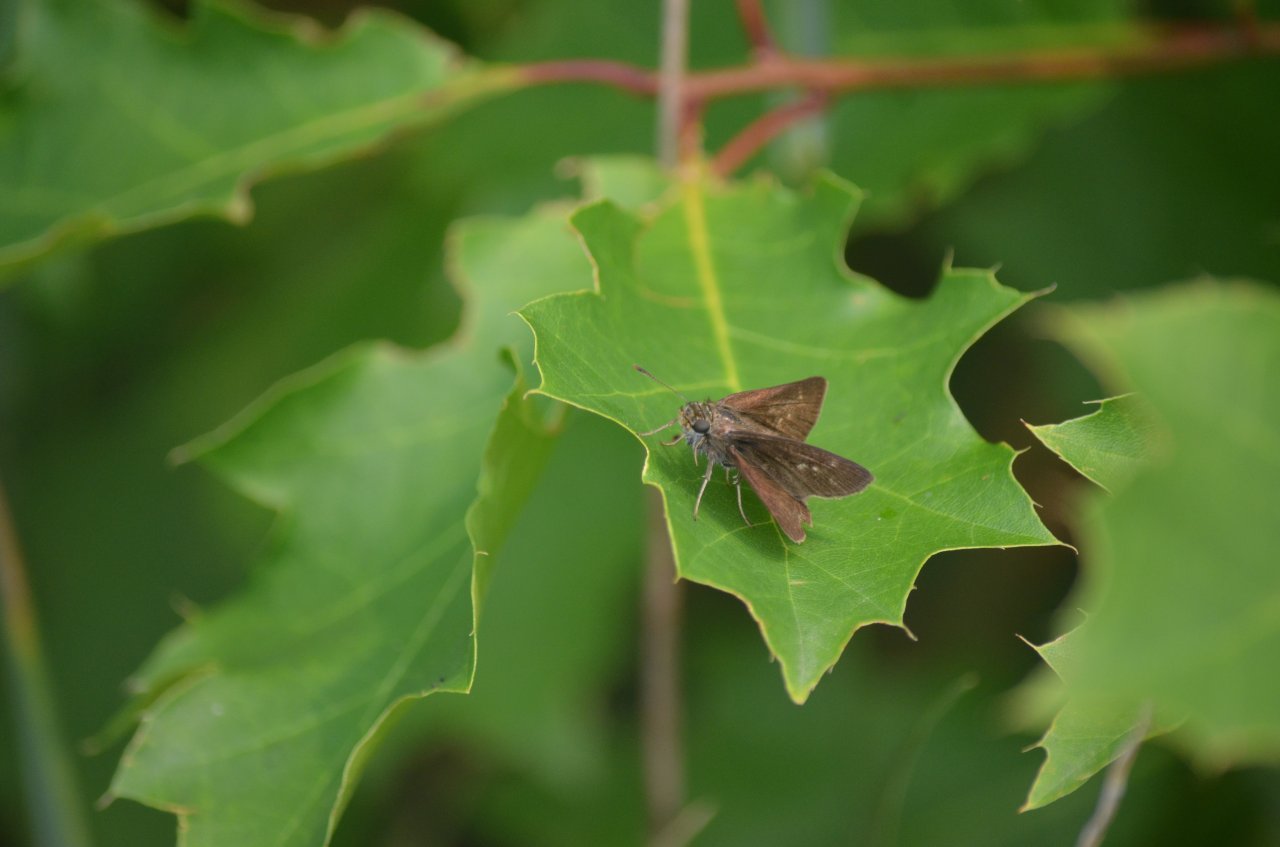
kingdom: Animalia
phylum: Arthropoda
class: Insecta
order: Lepidoptera
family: Hesperiidae
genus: Euphyes
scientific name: Euphyes vestris
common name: Dun Skipper
